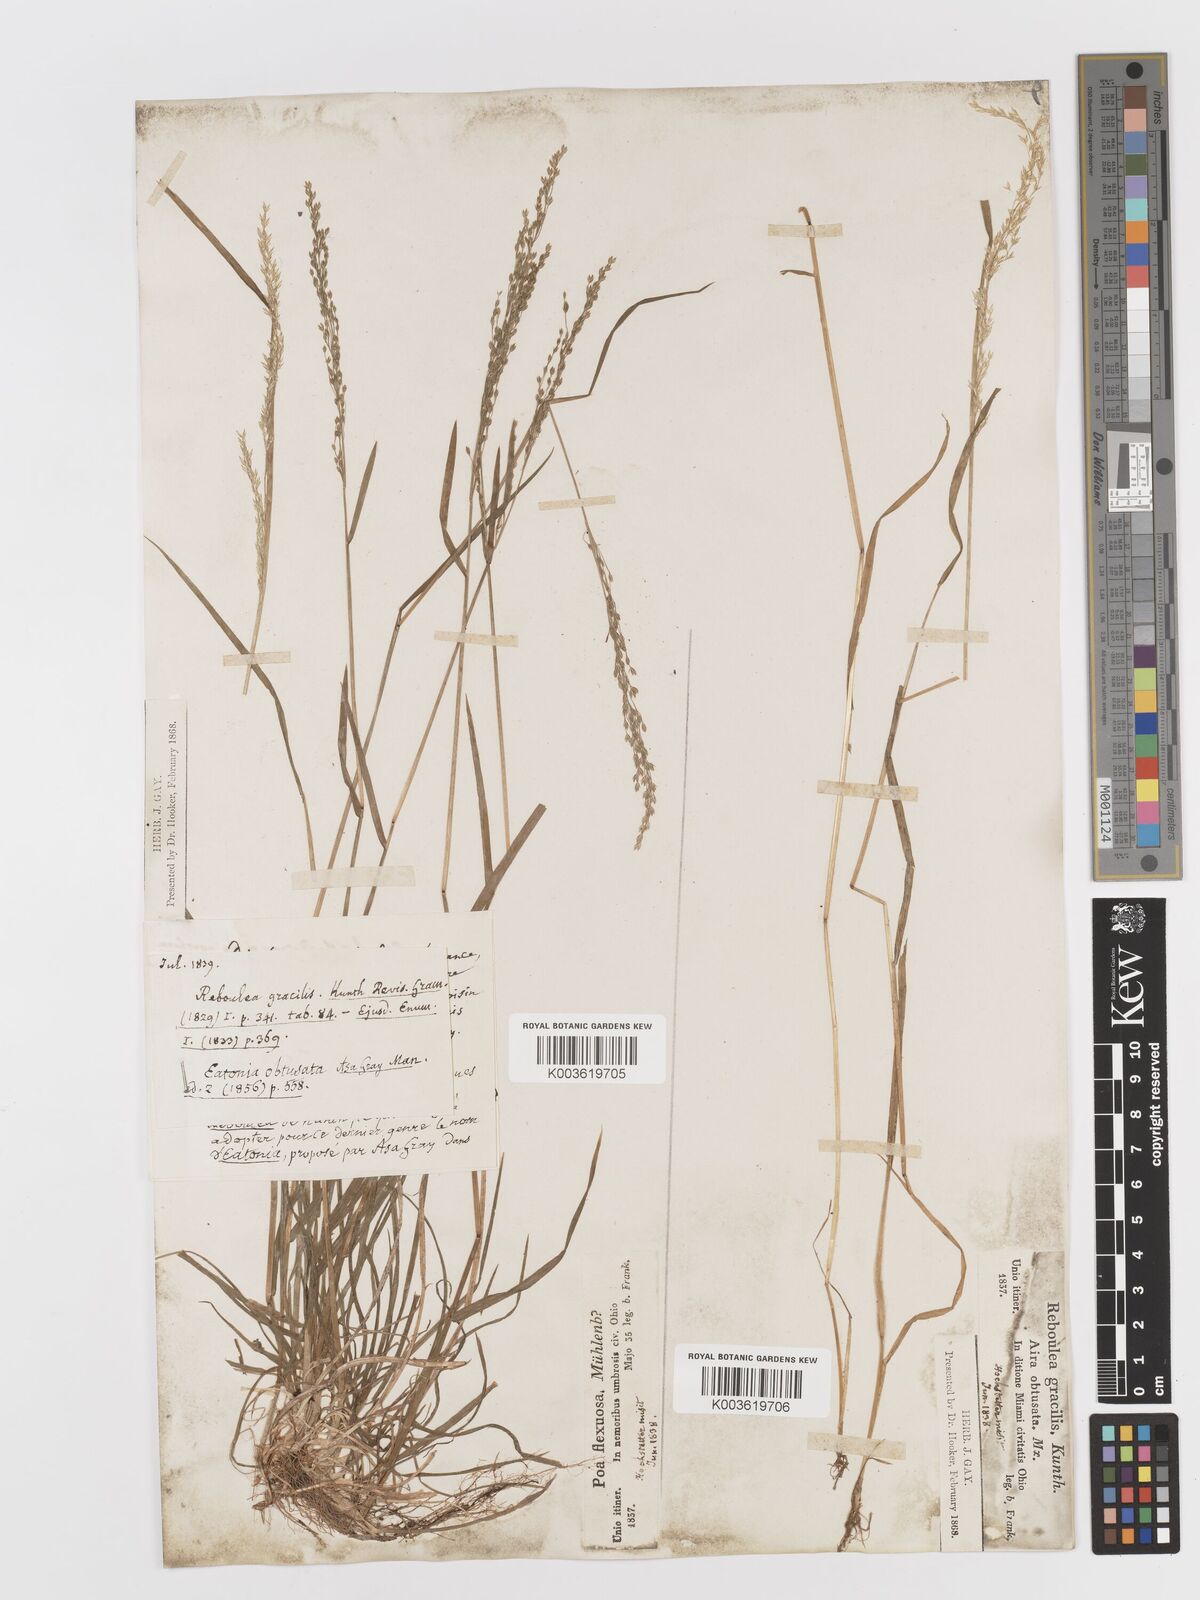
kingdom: Plantae
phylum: Tracheophyta
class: Liliopsida
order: Poales
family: Poaceae
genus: Sphenopholis
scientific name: Sphenopholis obtusata
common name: Prairie grass
